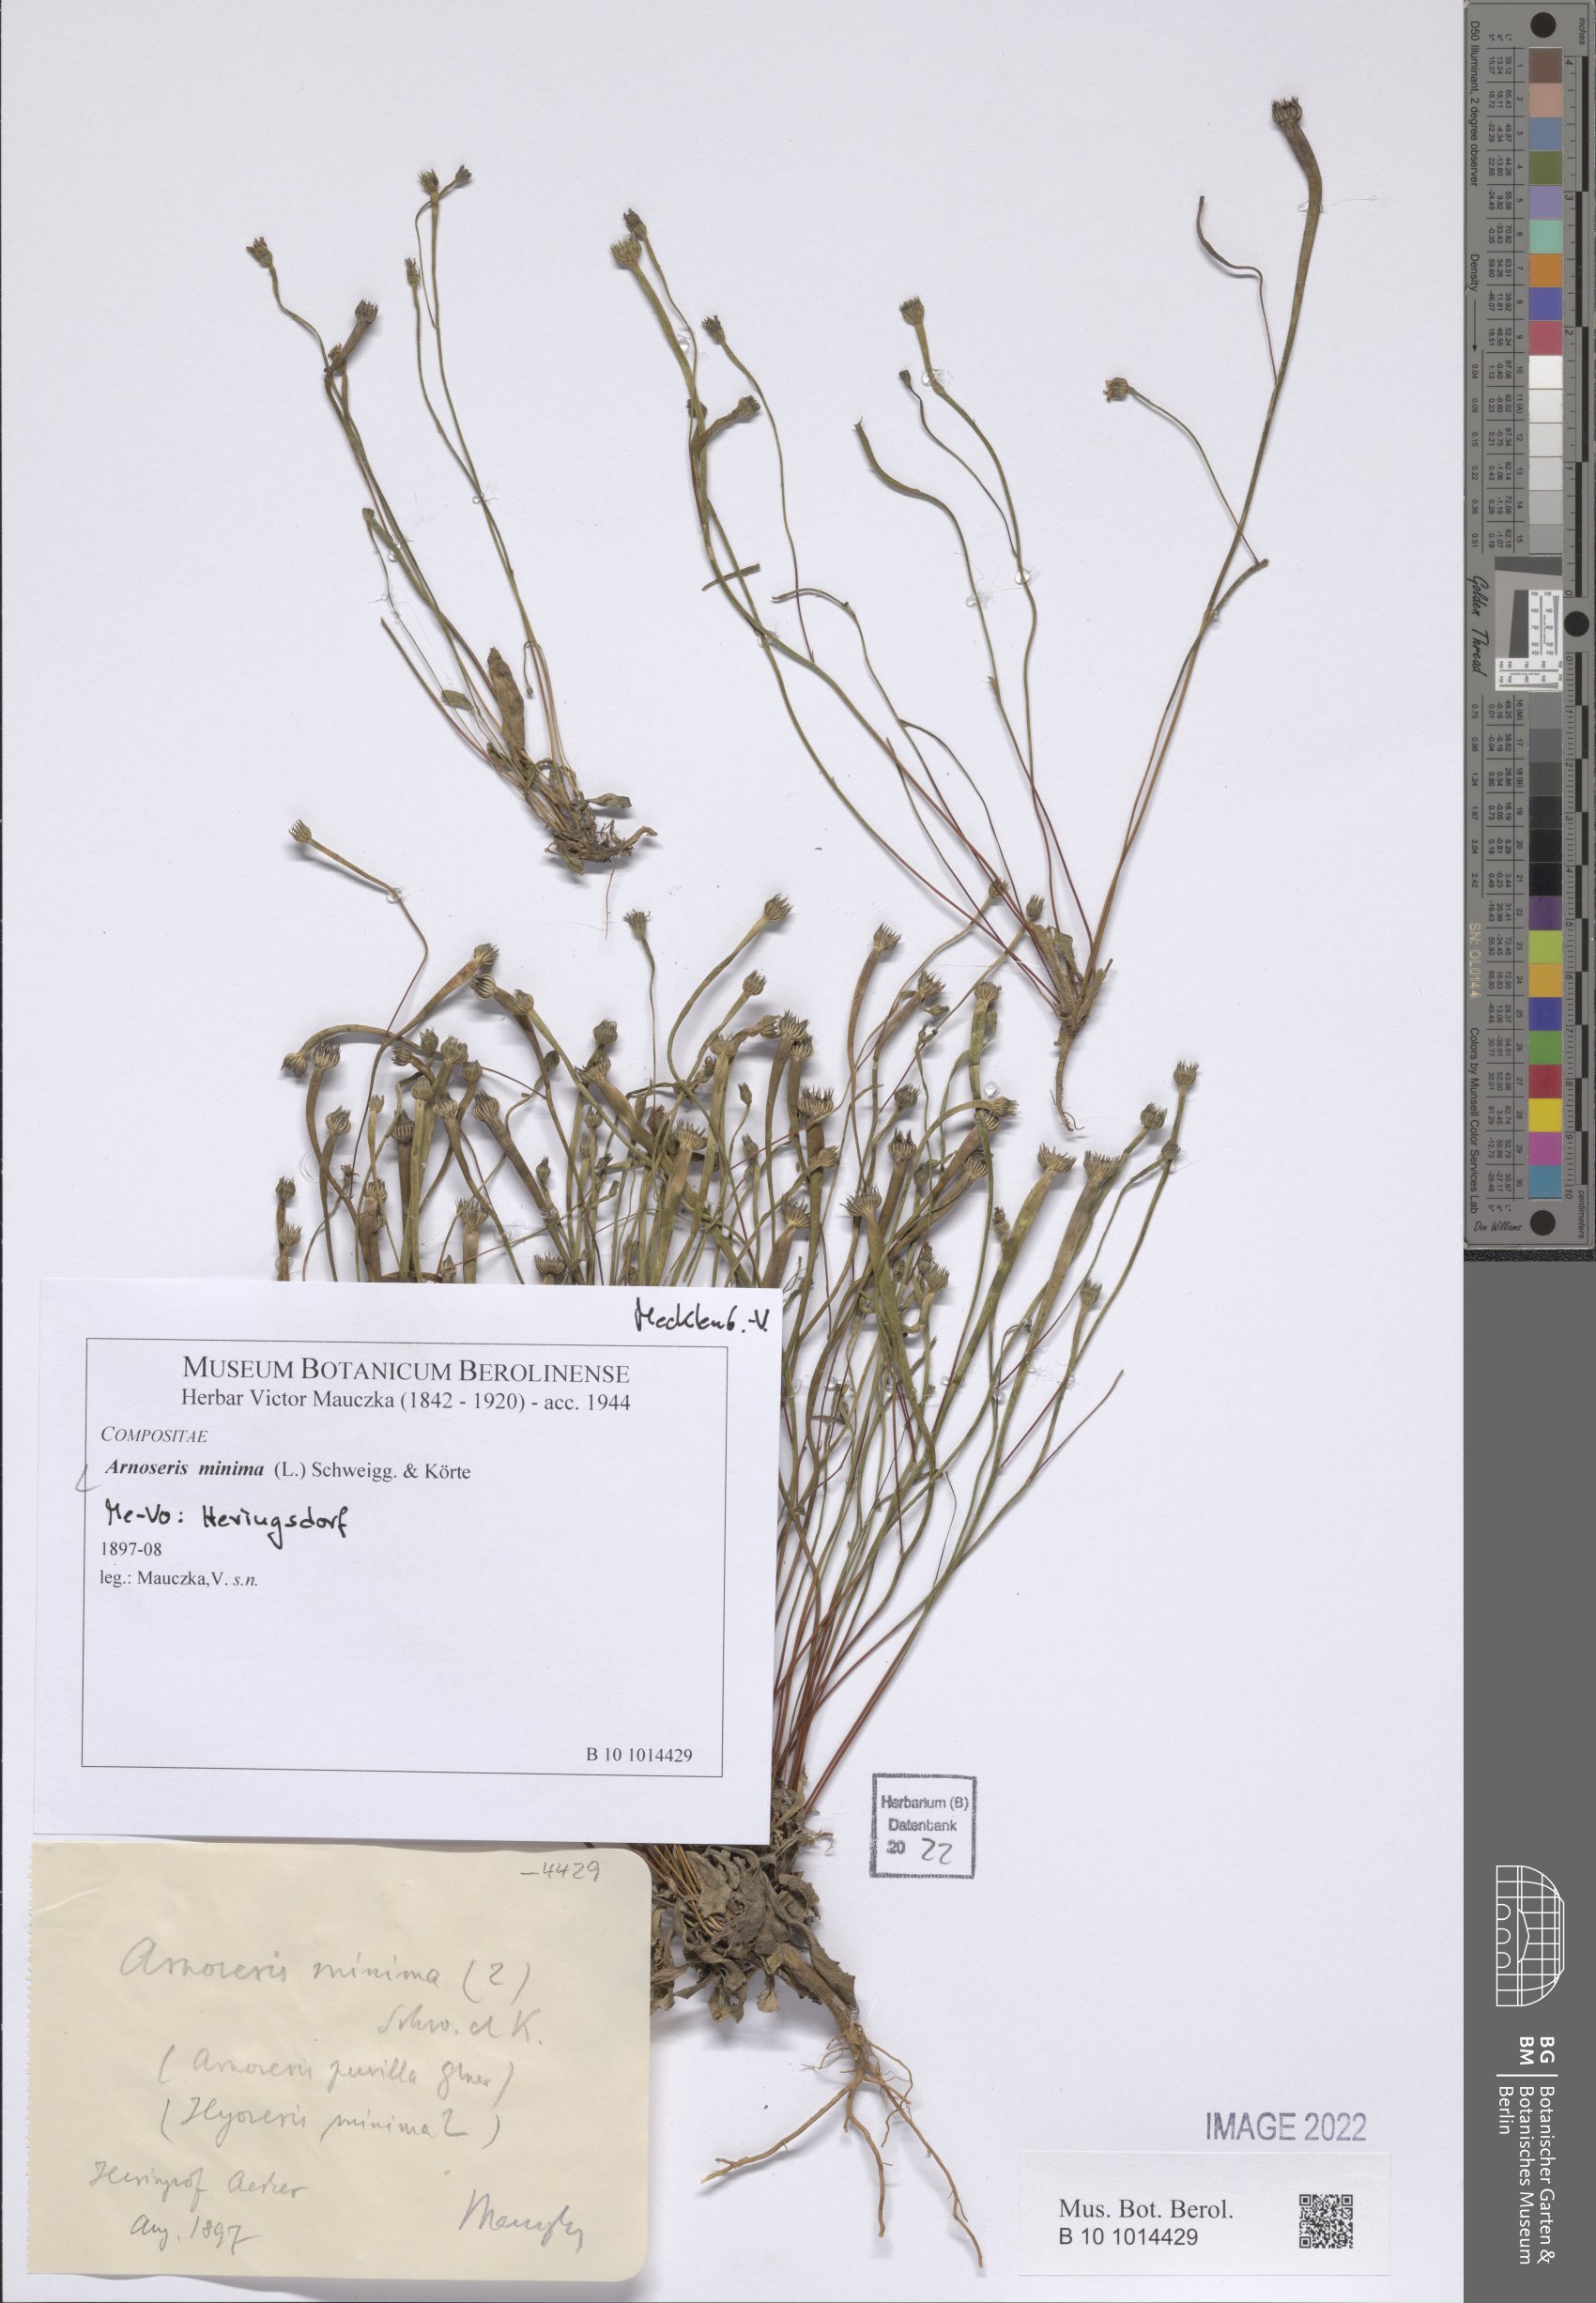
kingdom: Plantae
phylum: Tracheophyta
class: Magnoliopsida
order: Asterales
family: Asteraceae
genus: Arnoseris
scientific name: Arnoseris minima
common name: Lamb's succory
